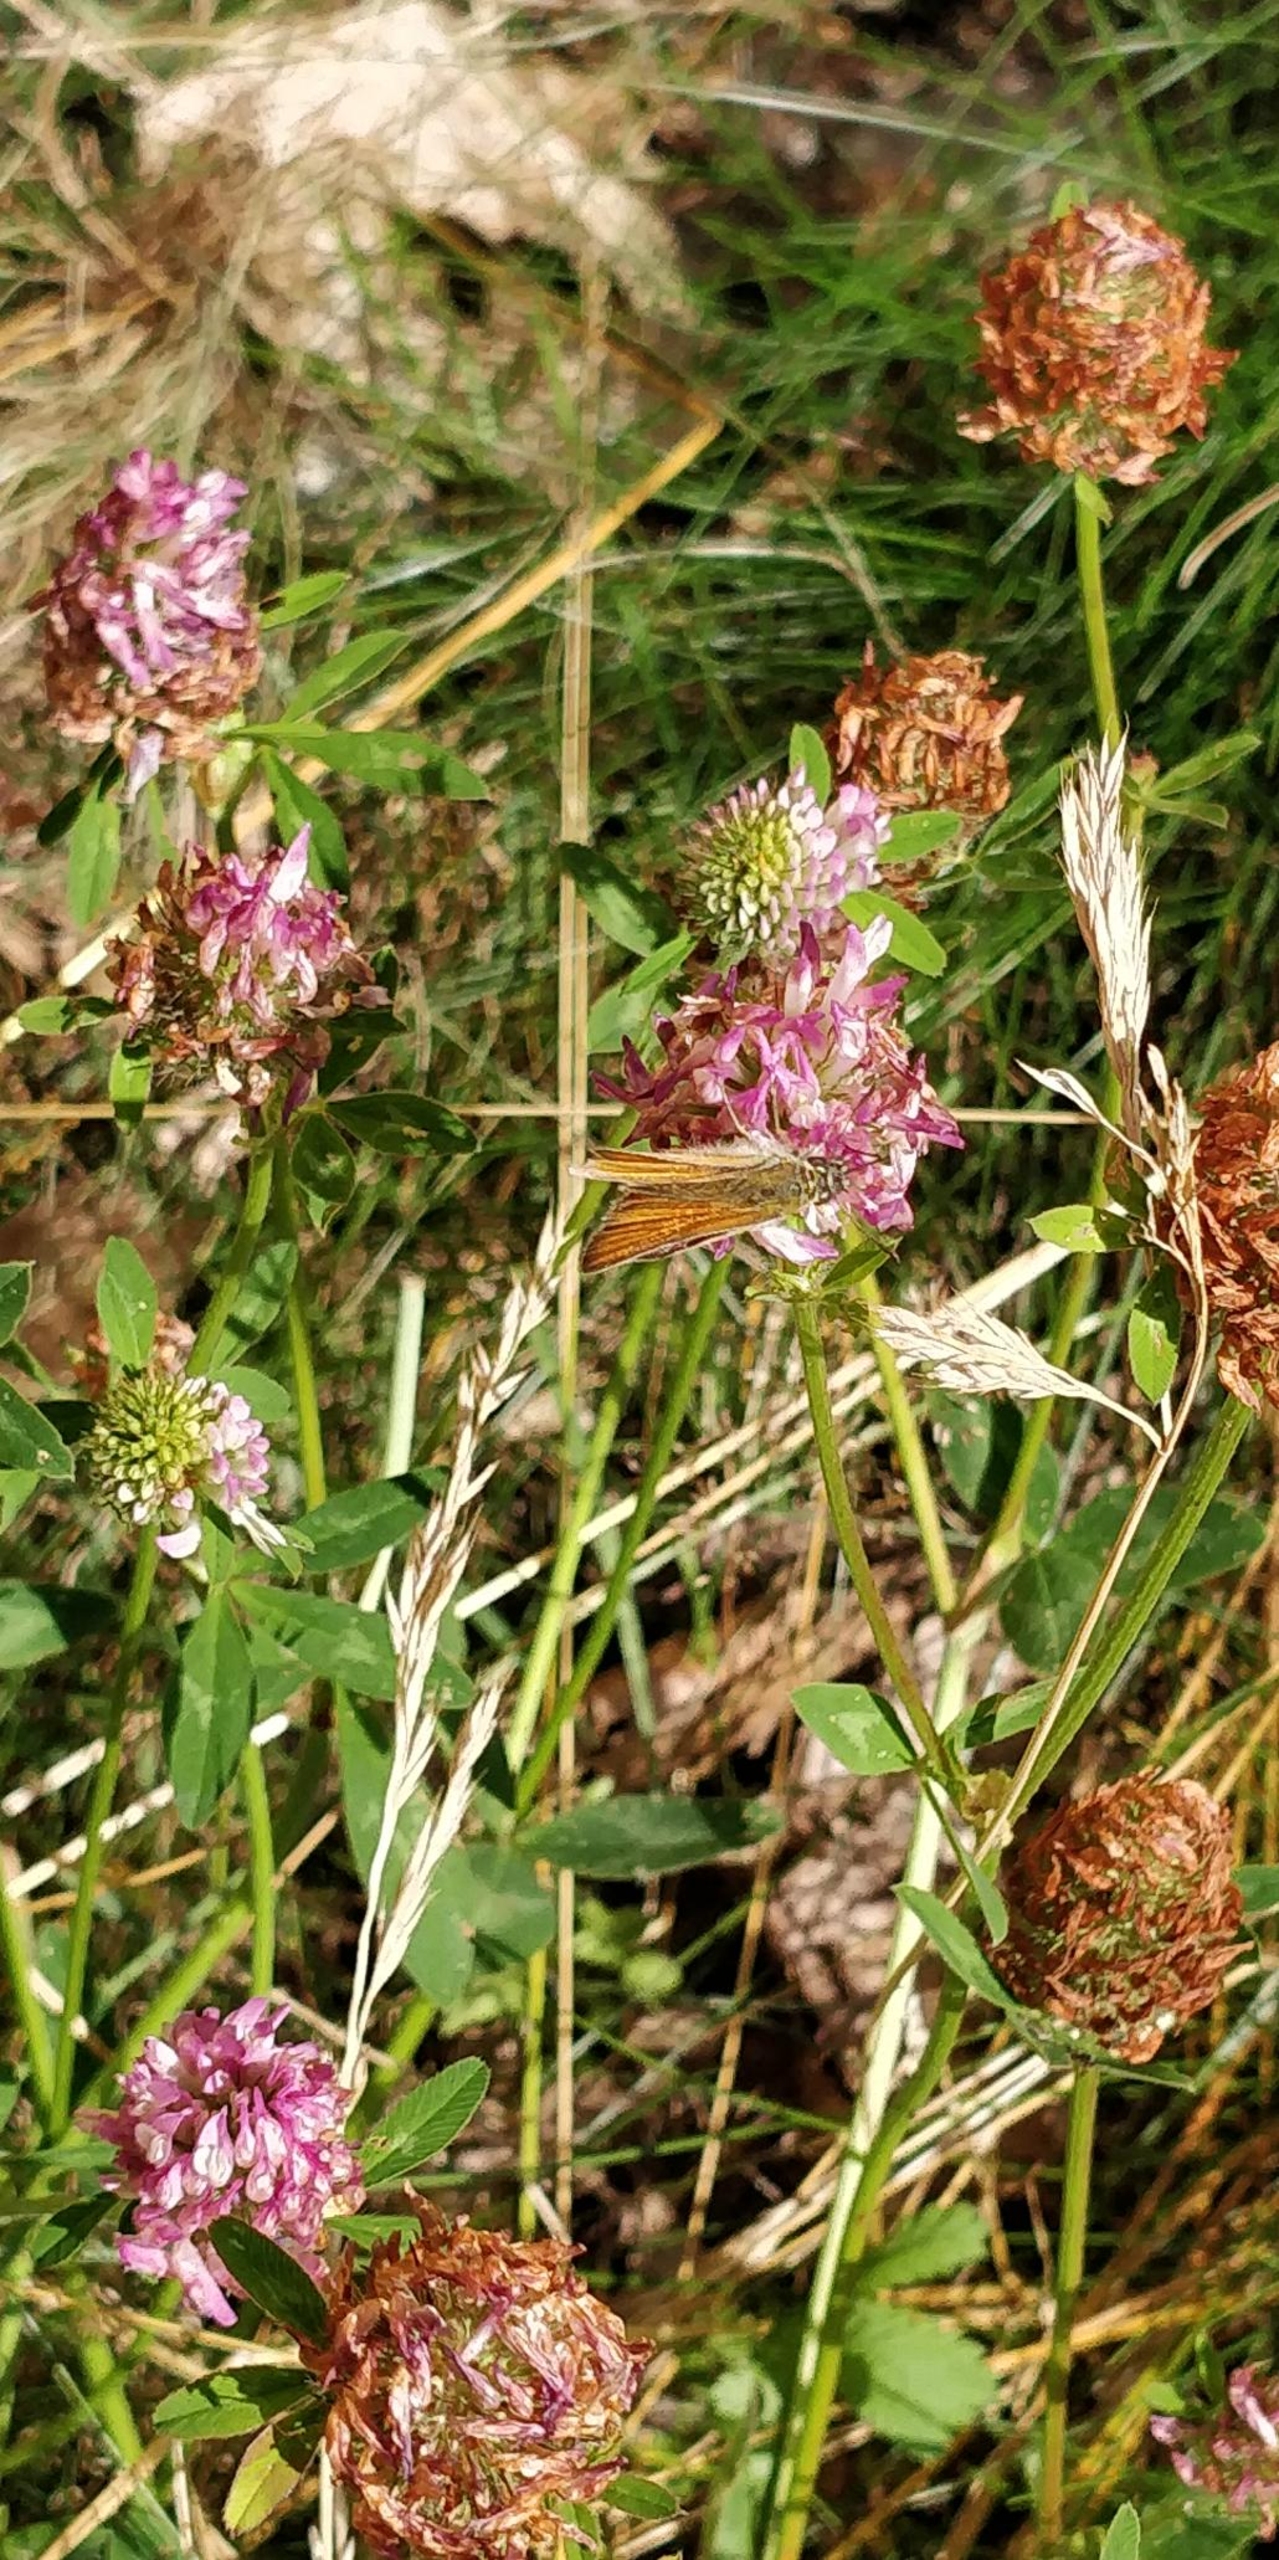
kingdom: Animalia
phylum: Arthropoda
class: Insecta
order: Lepidoptera
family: Hesperiidae
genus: Thymelicus
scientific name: Thymelicus lineola
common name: Stregbredpande
